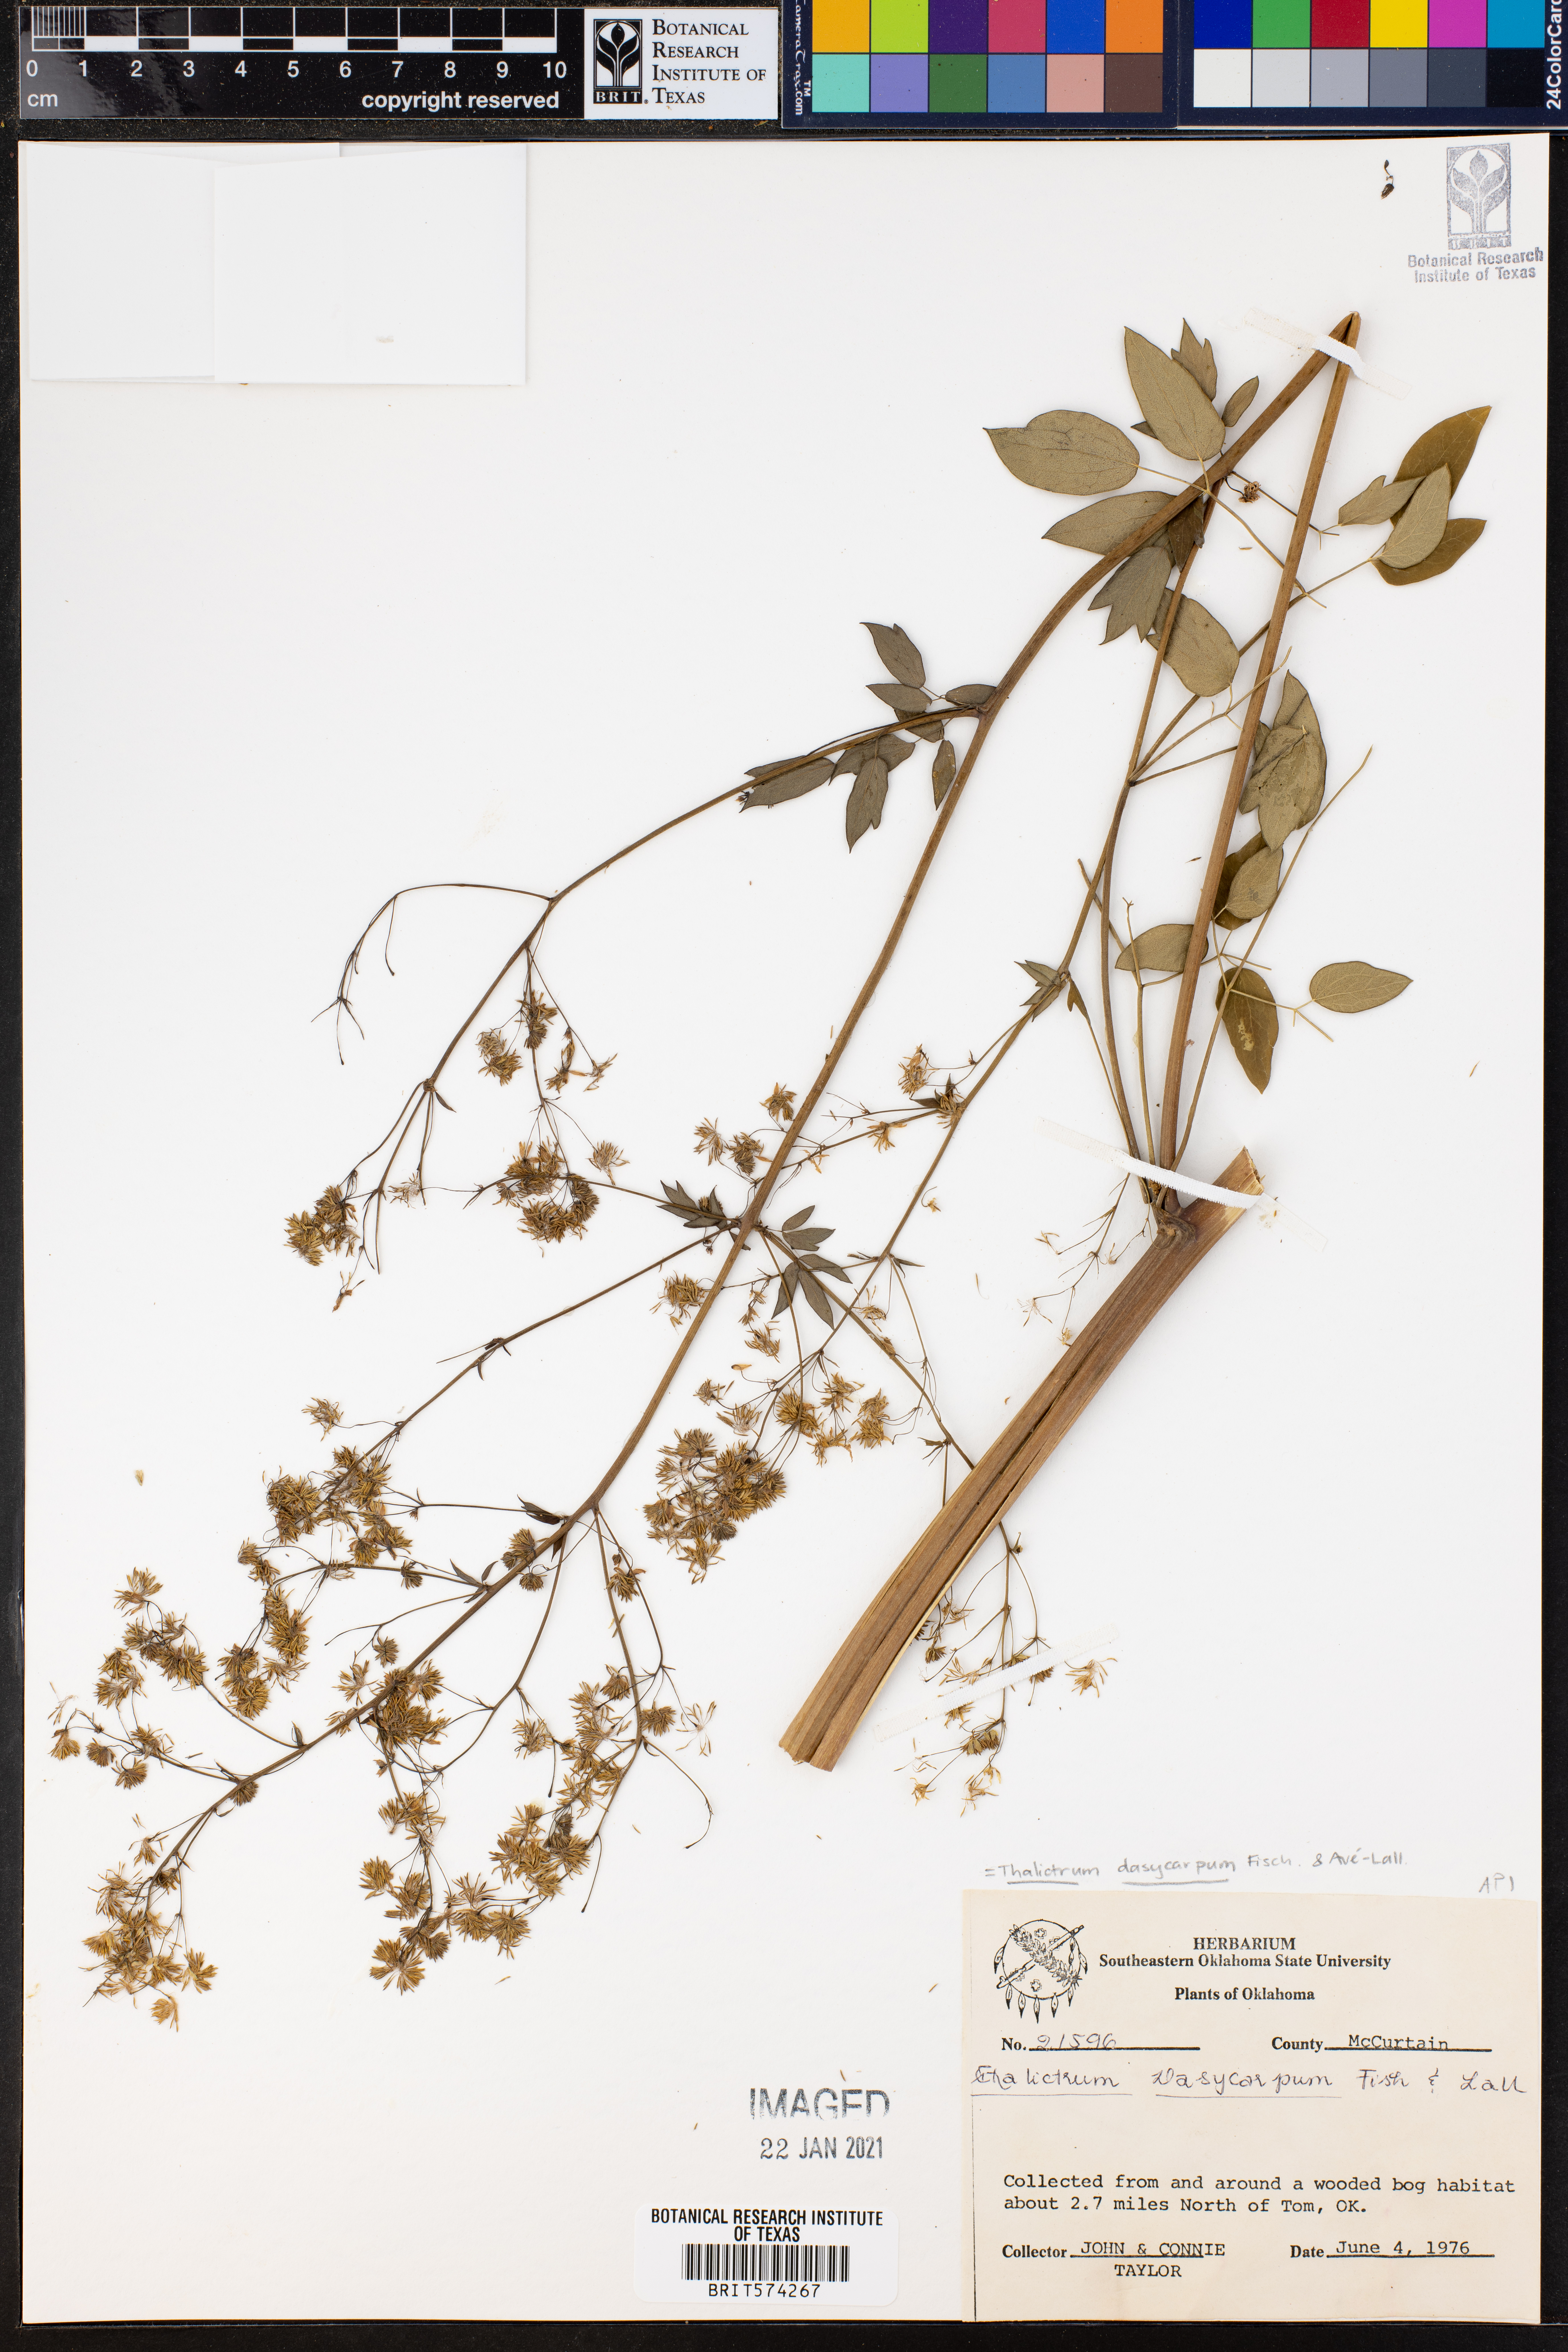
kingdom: Plantae
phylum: Tracheophyta
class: Magnoliopsida
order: Ranunculales
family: Ranunculaceae
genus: Thalictrum
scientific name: Thalictrum dasycarpum
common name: Purple meadow-rue
